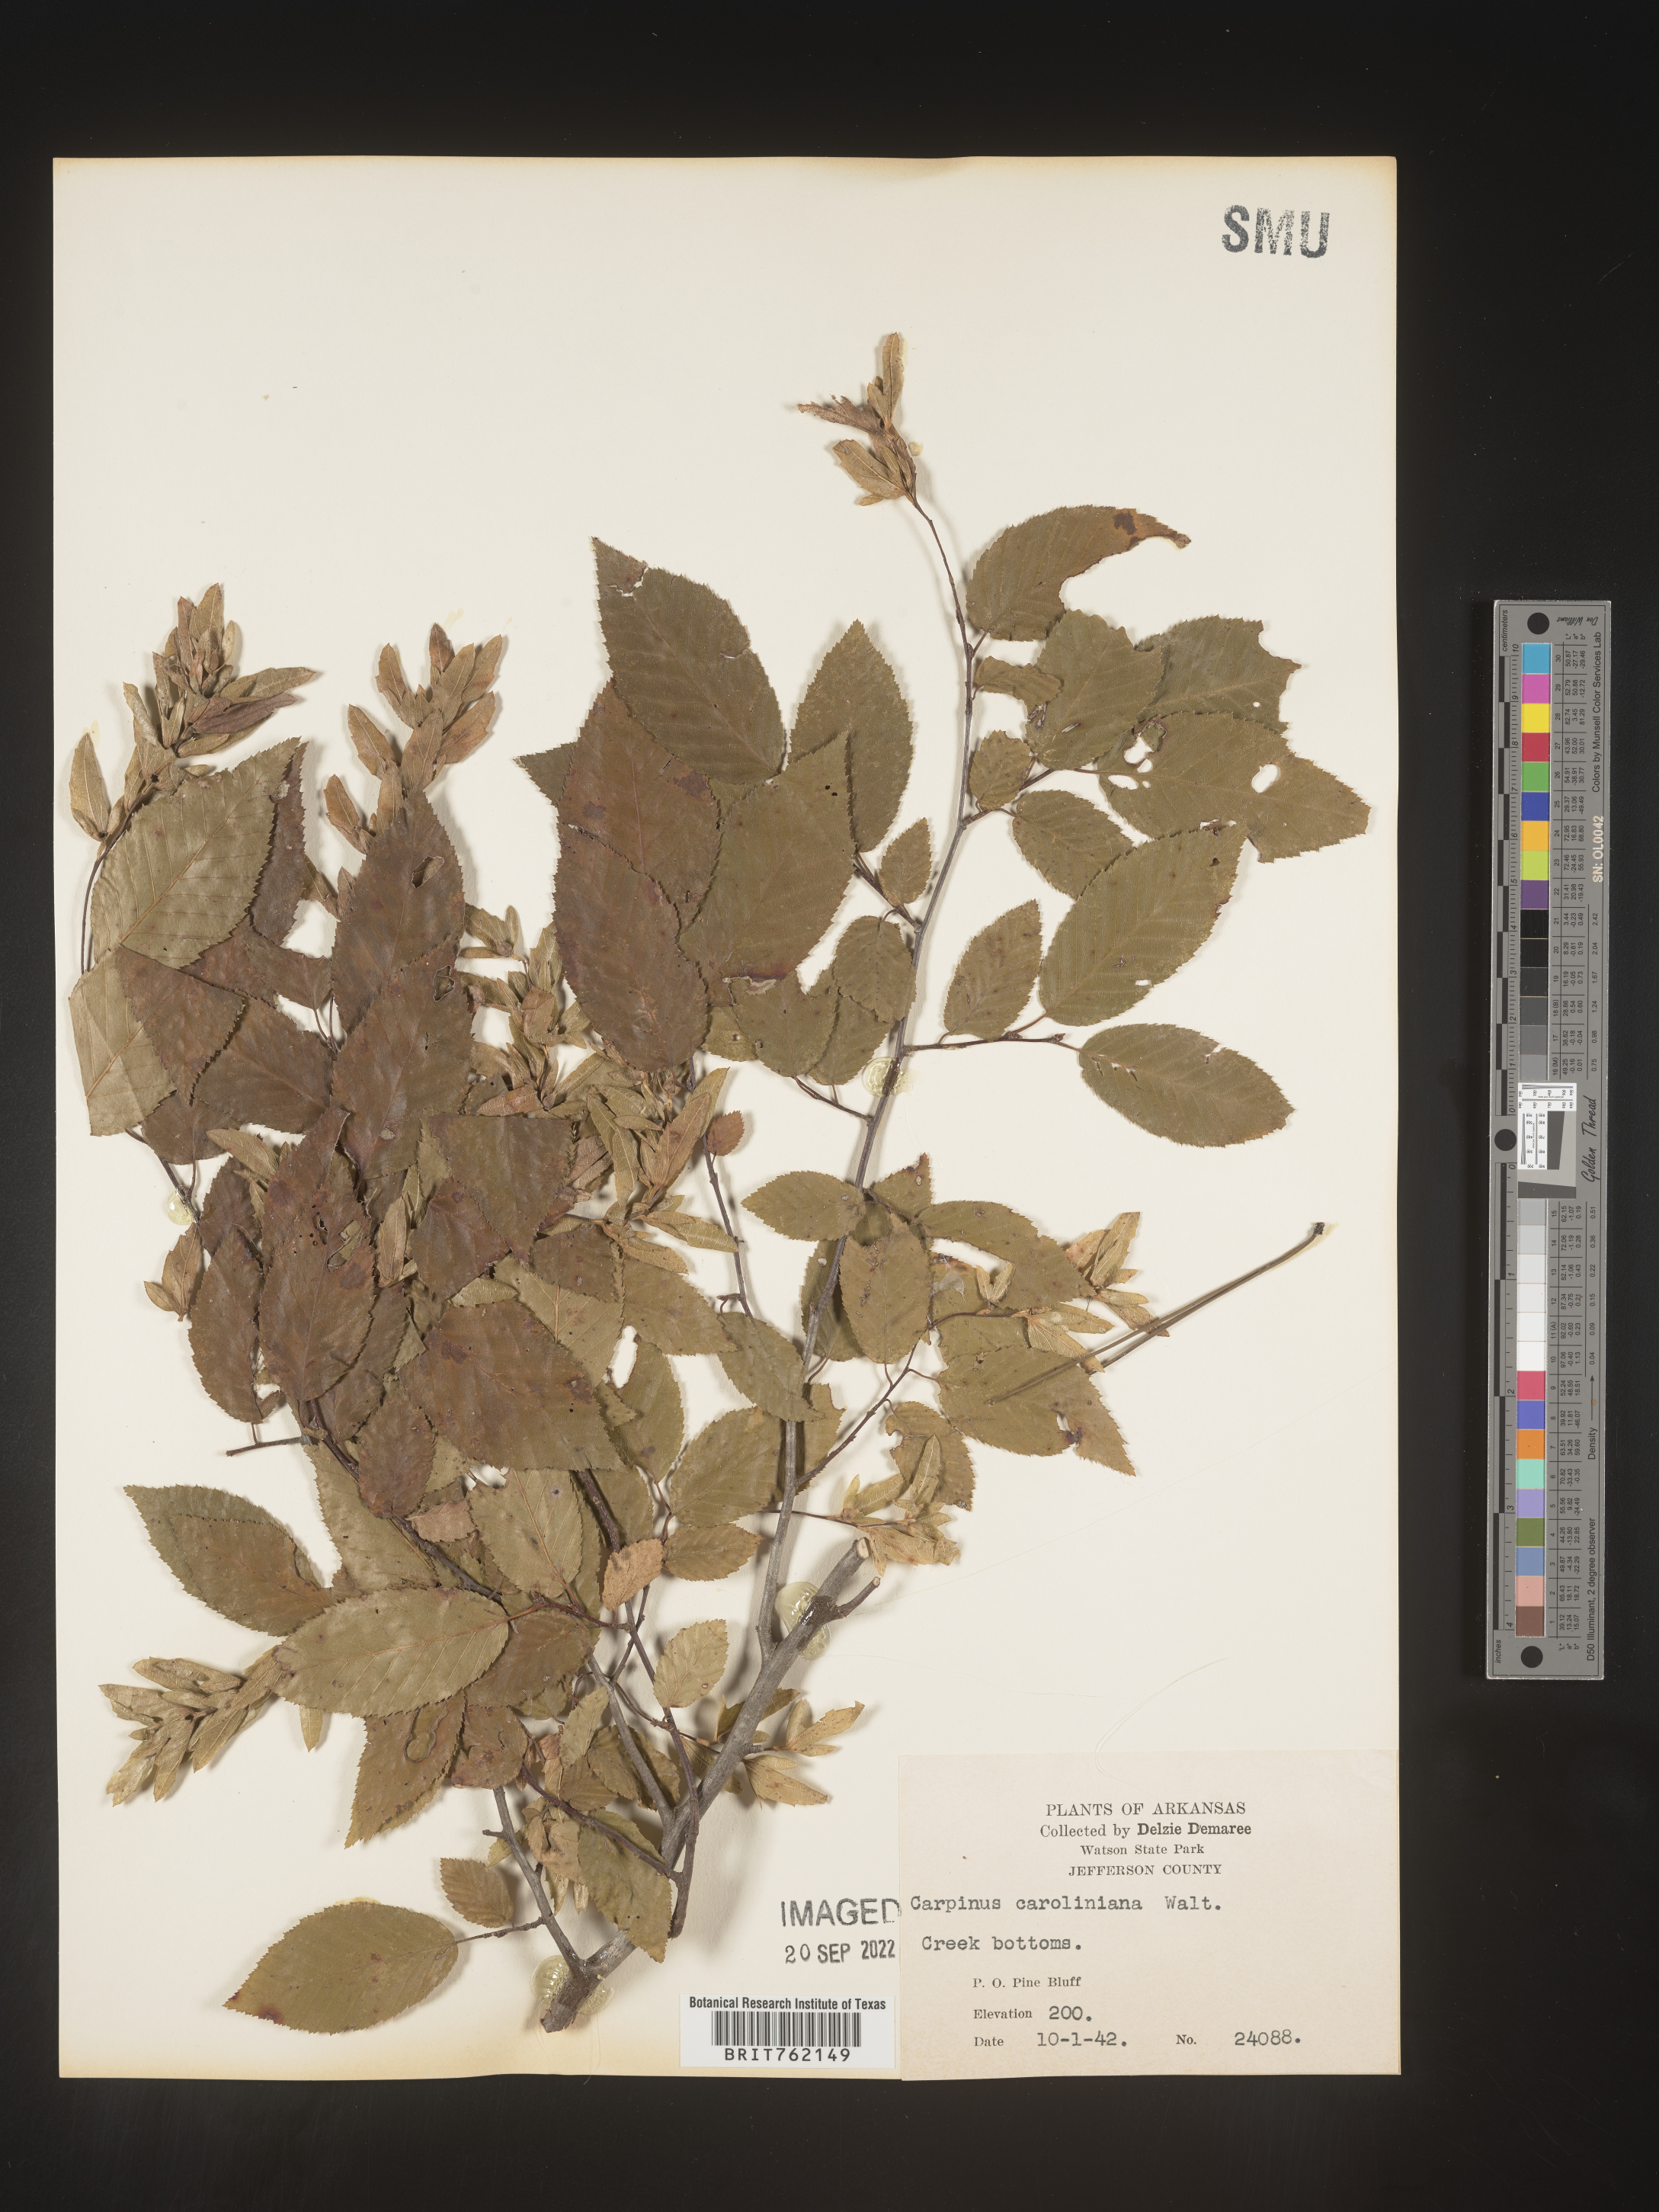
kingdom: Plantae
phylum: Tracheophyta
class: Magnoliopsida
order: Fagales
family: Betulaceae
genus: Carpinus
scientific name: Carpinus caroliniana
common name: American hornbeam
